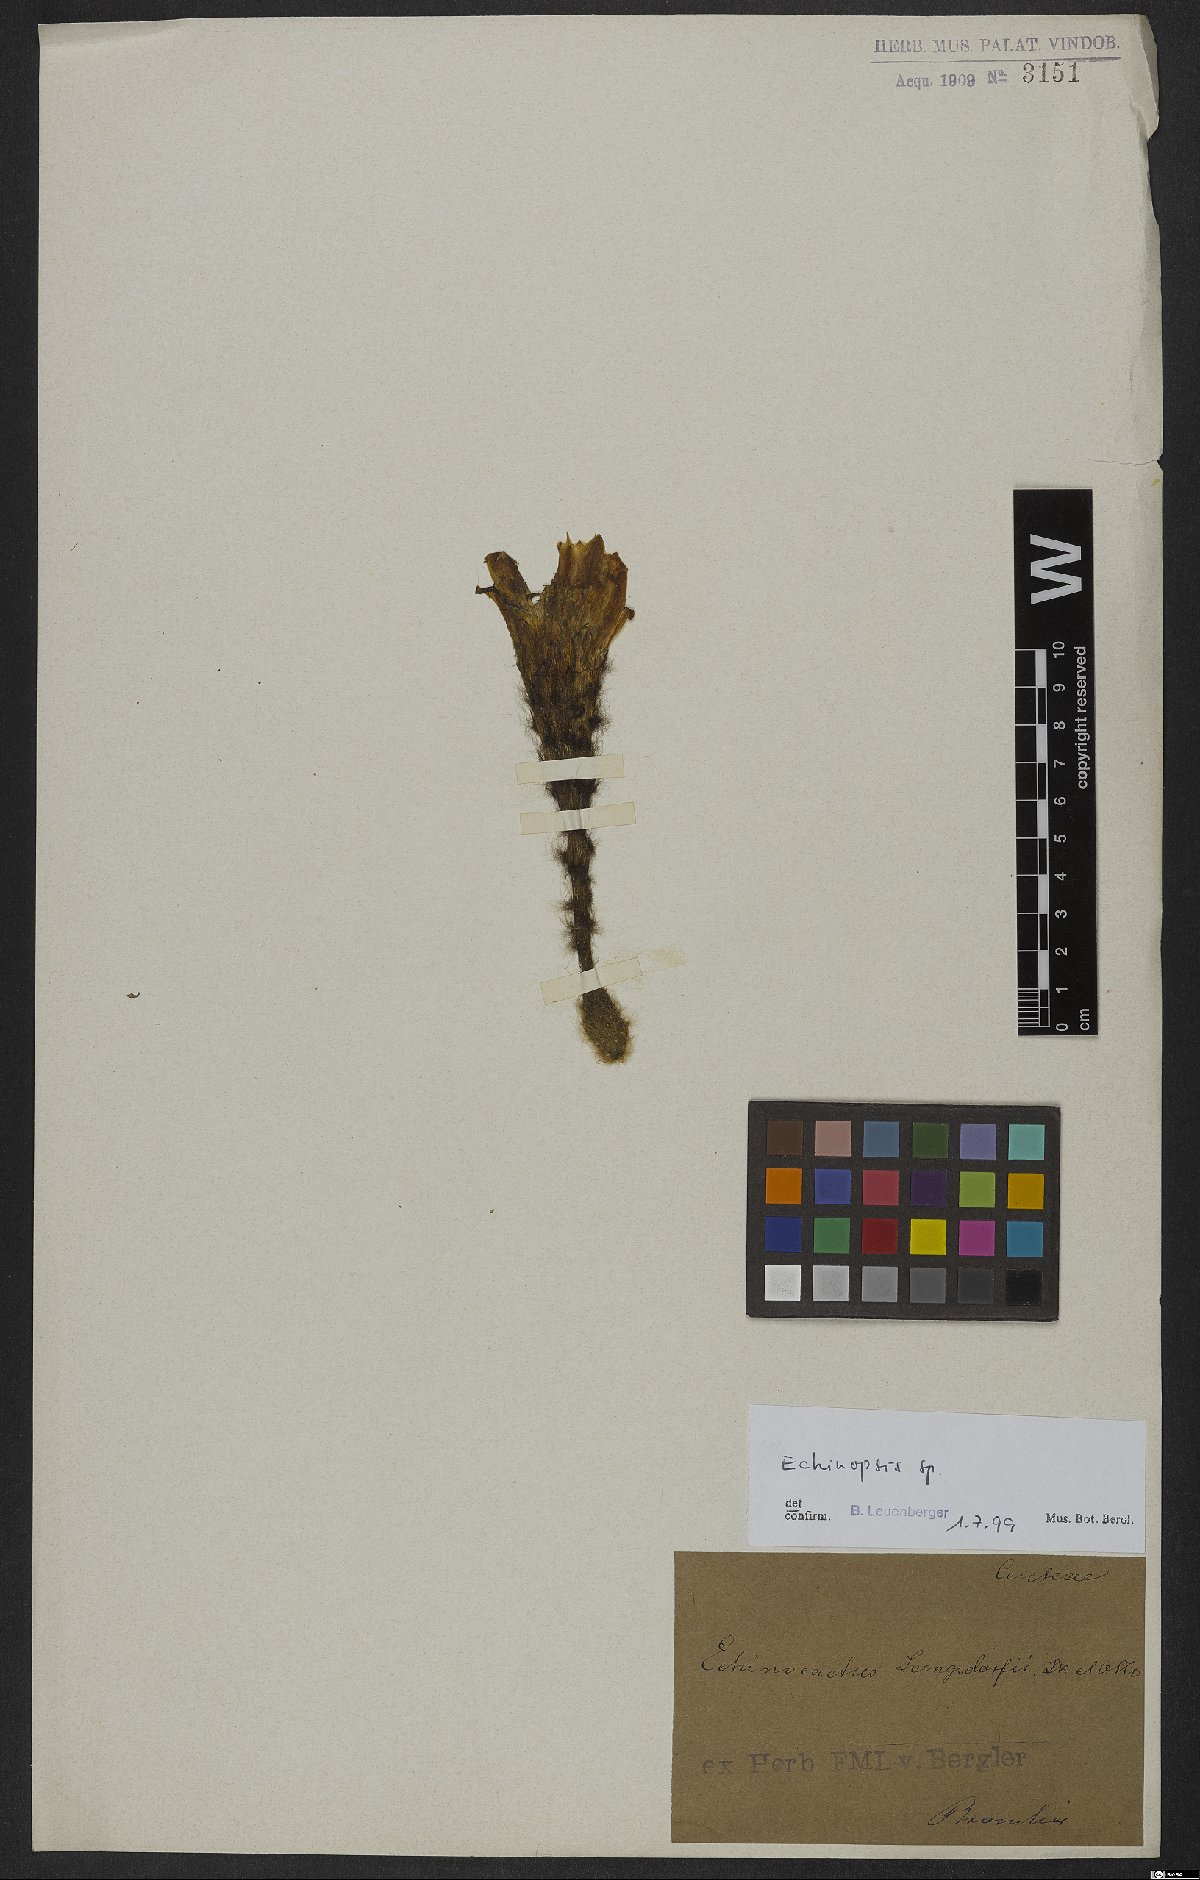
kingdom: Plantae
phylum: Tracheophyta
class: Magnoliopsida
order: Caryophyllales
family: Cactaceae
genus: Echinopsis
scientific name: Echinopsis
